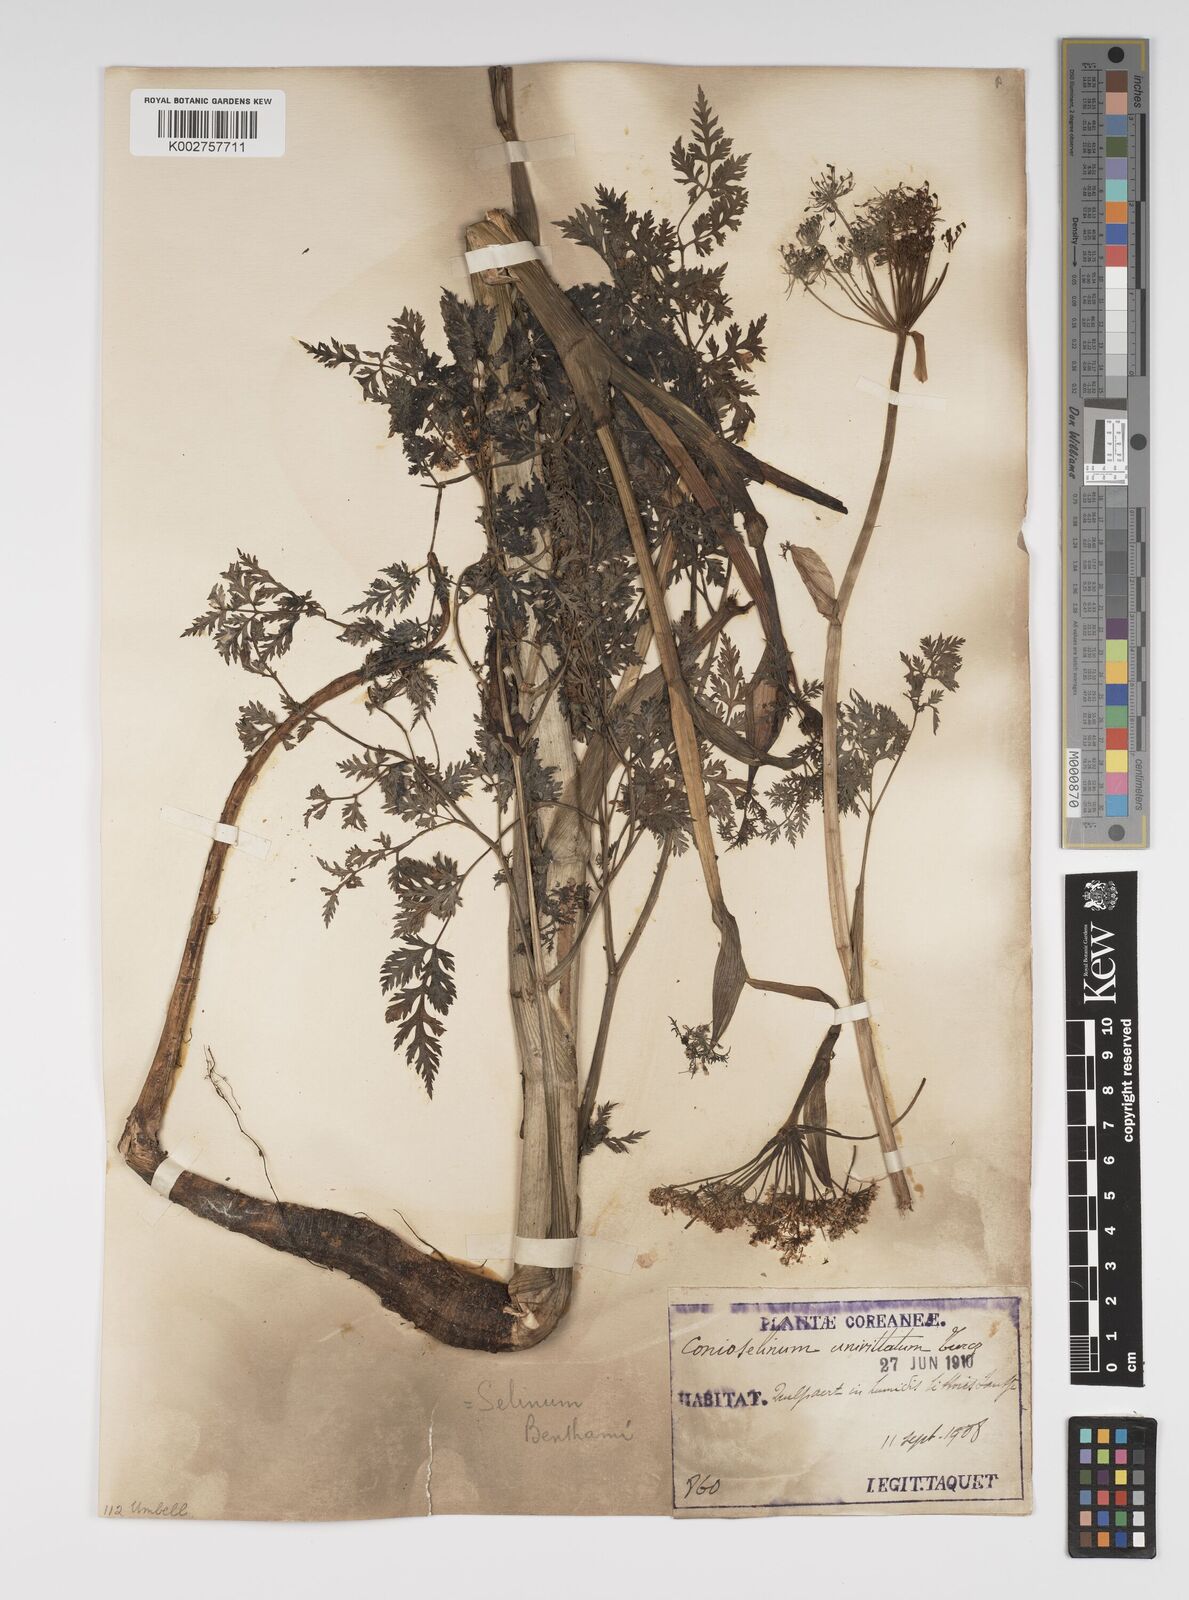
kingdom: Plantae
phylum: Tracheophyta
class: Magnoliopsida
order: Apiales
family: Apiaceae
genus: Seseli
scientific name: Seseli
